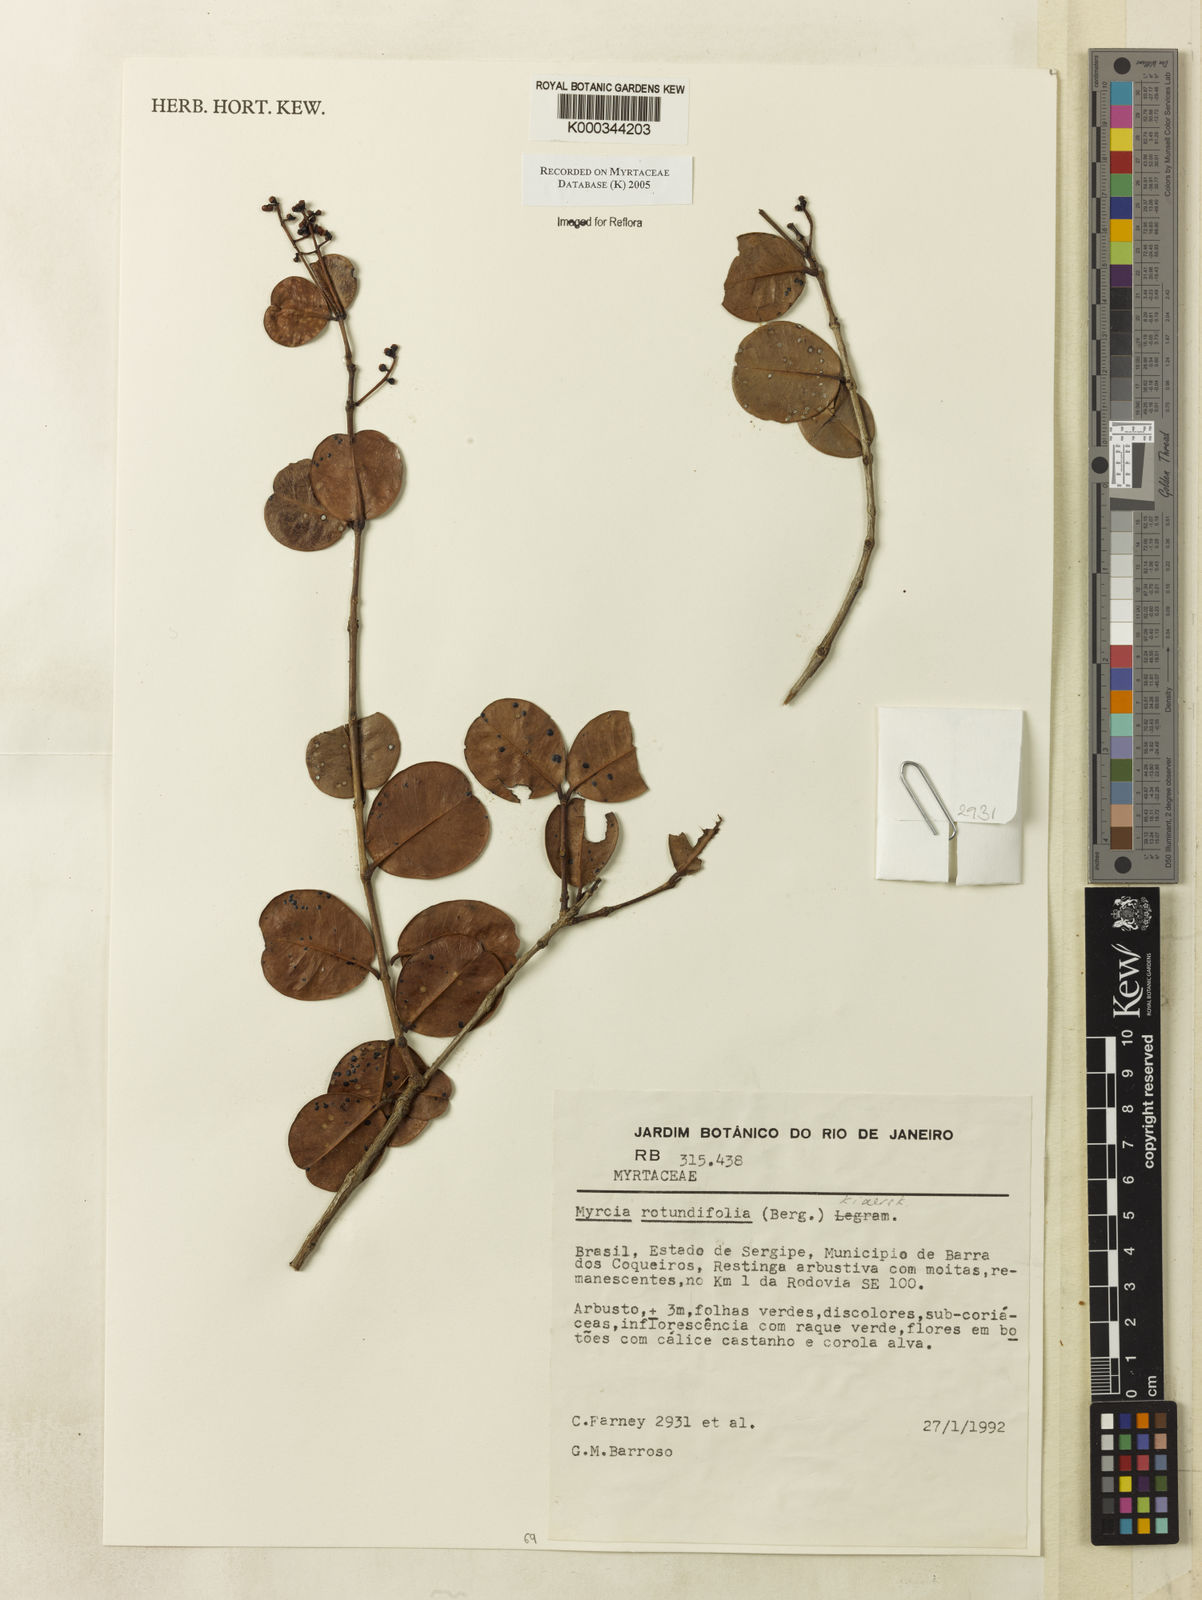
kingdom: Plantae
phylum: Tracheophyta
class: Magnoliopsida
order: Myrtales
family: Myrtaceae
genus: Myrcia
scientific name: Myrcia rotundifolia
